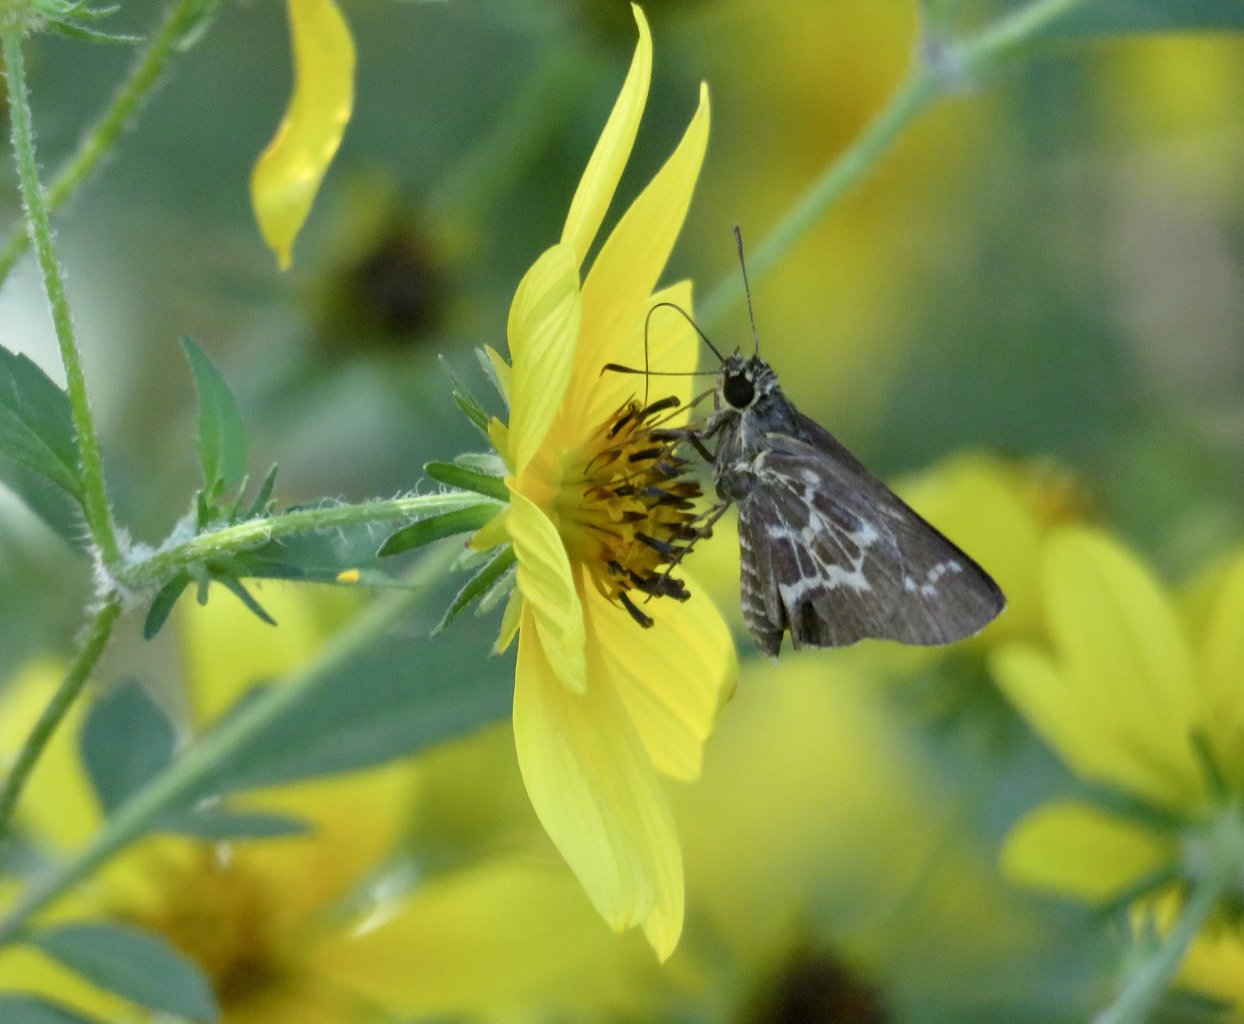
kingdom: Animalia
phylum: Arthropoda
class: Insecta
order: Lepidoptera
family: Hesperiidae
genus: Mastor
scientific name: Mastor aesculapius
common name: Lace-winged Roadside-Skipper
